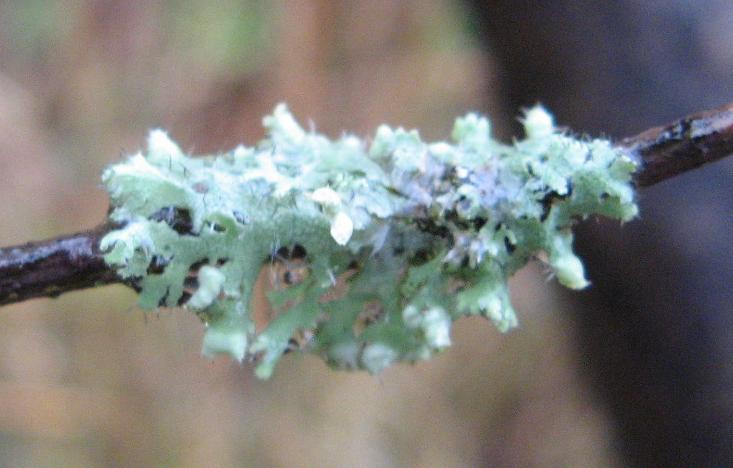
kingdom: Fungi
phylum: Ascomycota
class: Lecanoromycetes
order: Caliciales
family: Physciaceae
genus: Physcia
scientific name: Physcia adscendens
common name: hætte-rosetlav
